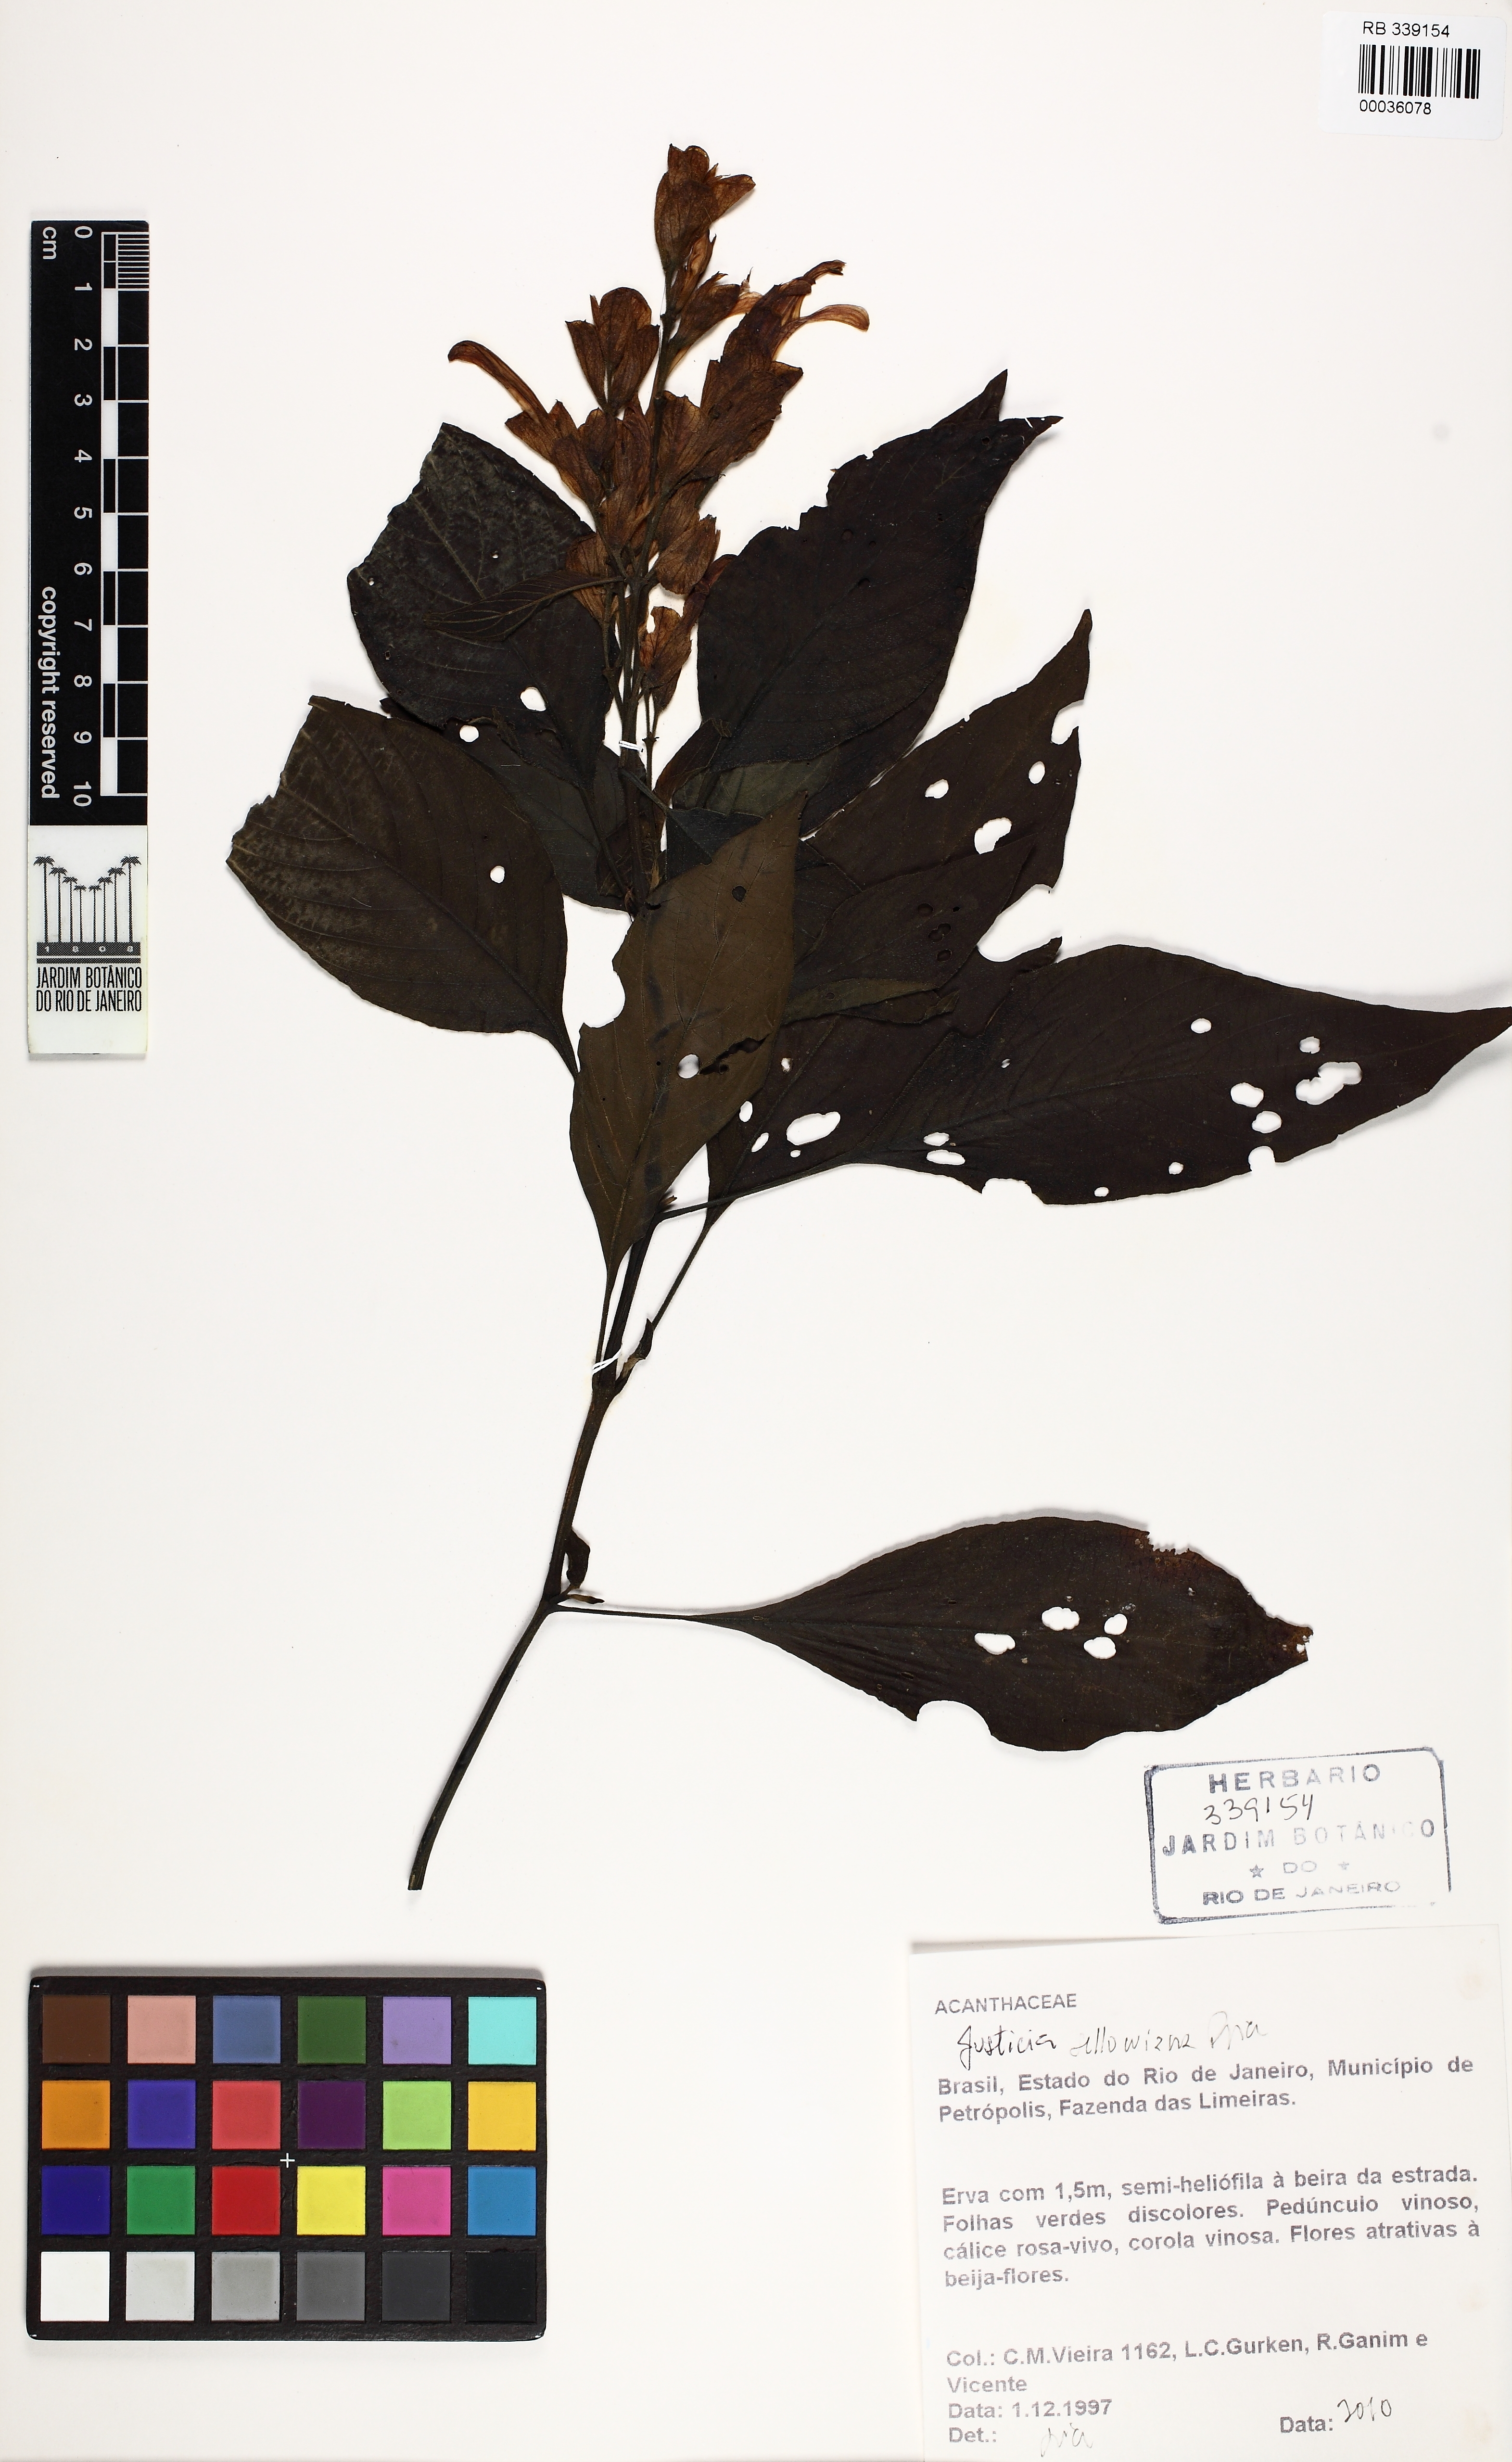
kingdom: Plantae
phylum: Tracheophyta
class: Magnoliopsida
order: Lamiales
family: Acanthaceae
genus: Justicia
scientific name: Justicia sellowiana
